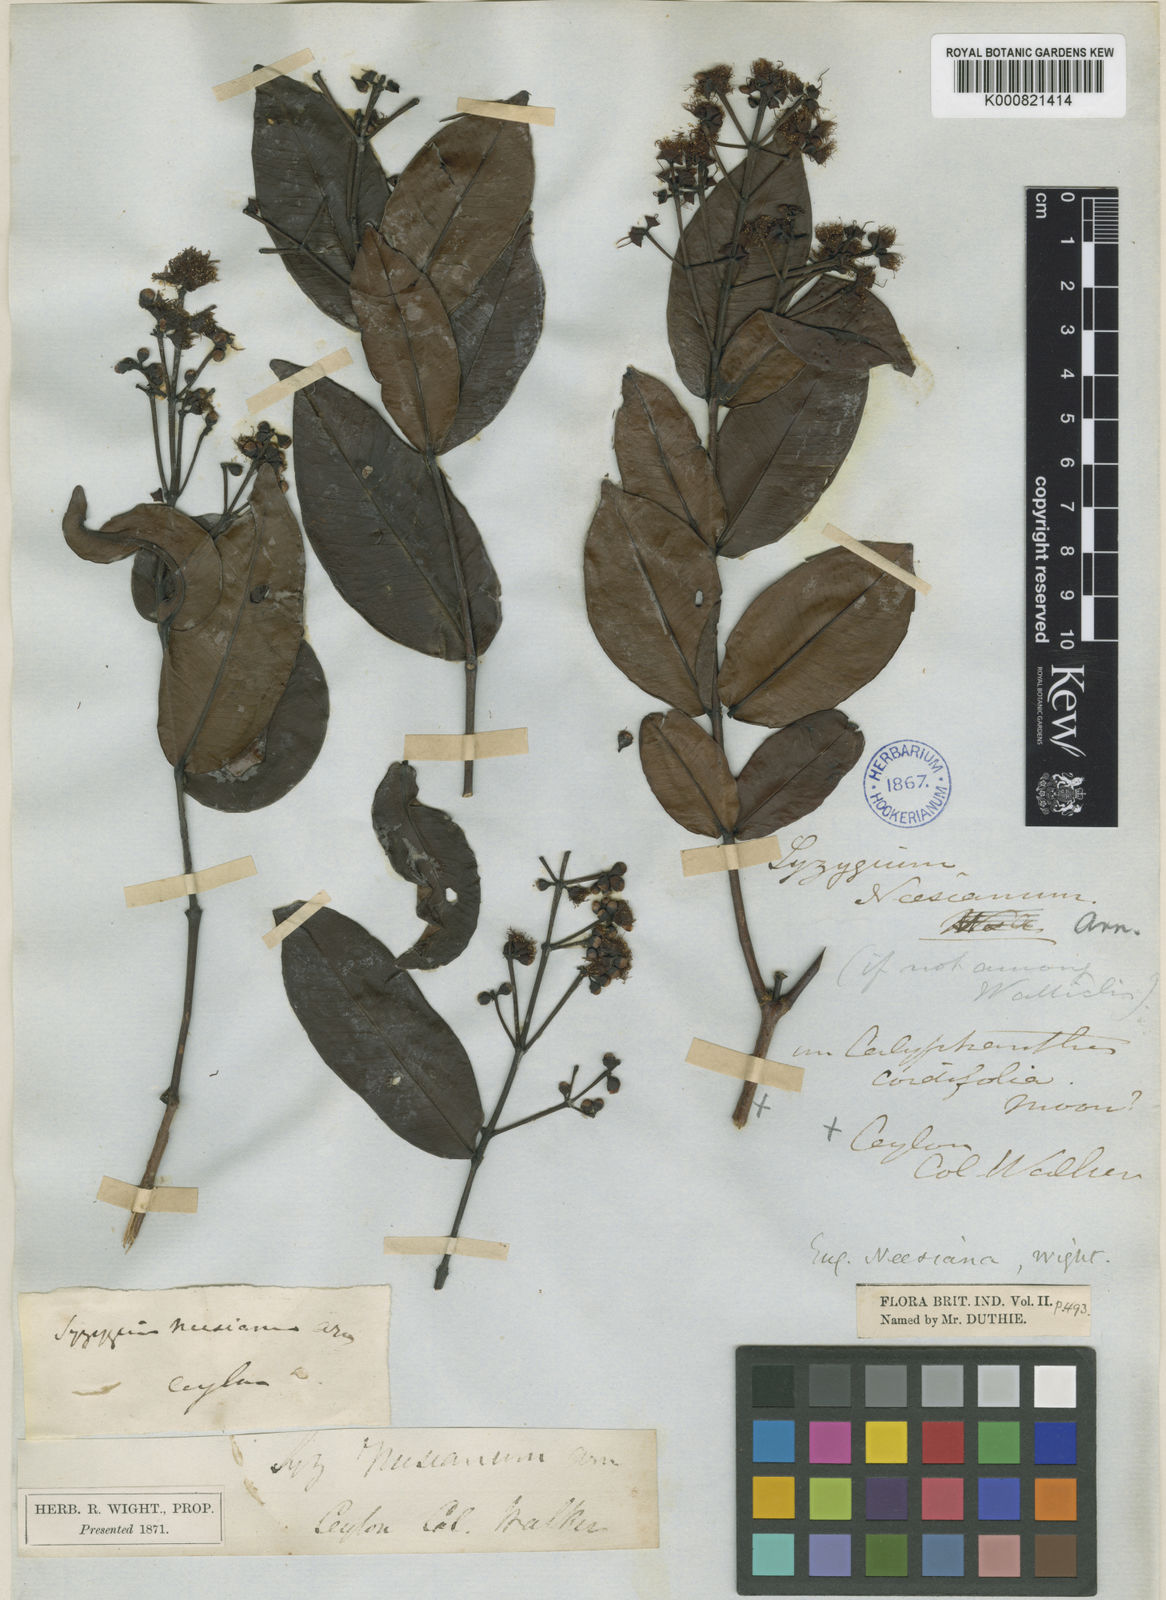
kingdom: Plantae
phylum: Tracheophyta
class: Magnoliopsida
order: Myrtales
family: Myrtaceae
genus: Syzygium
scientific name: Syzygium neesianum
